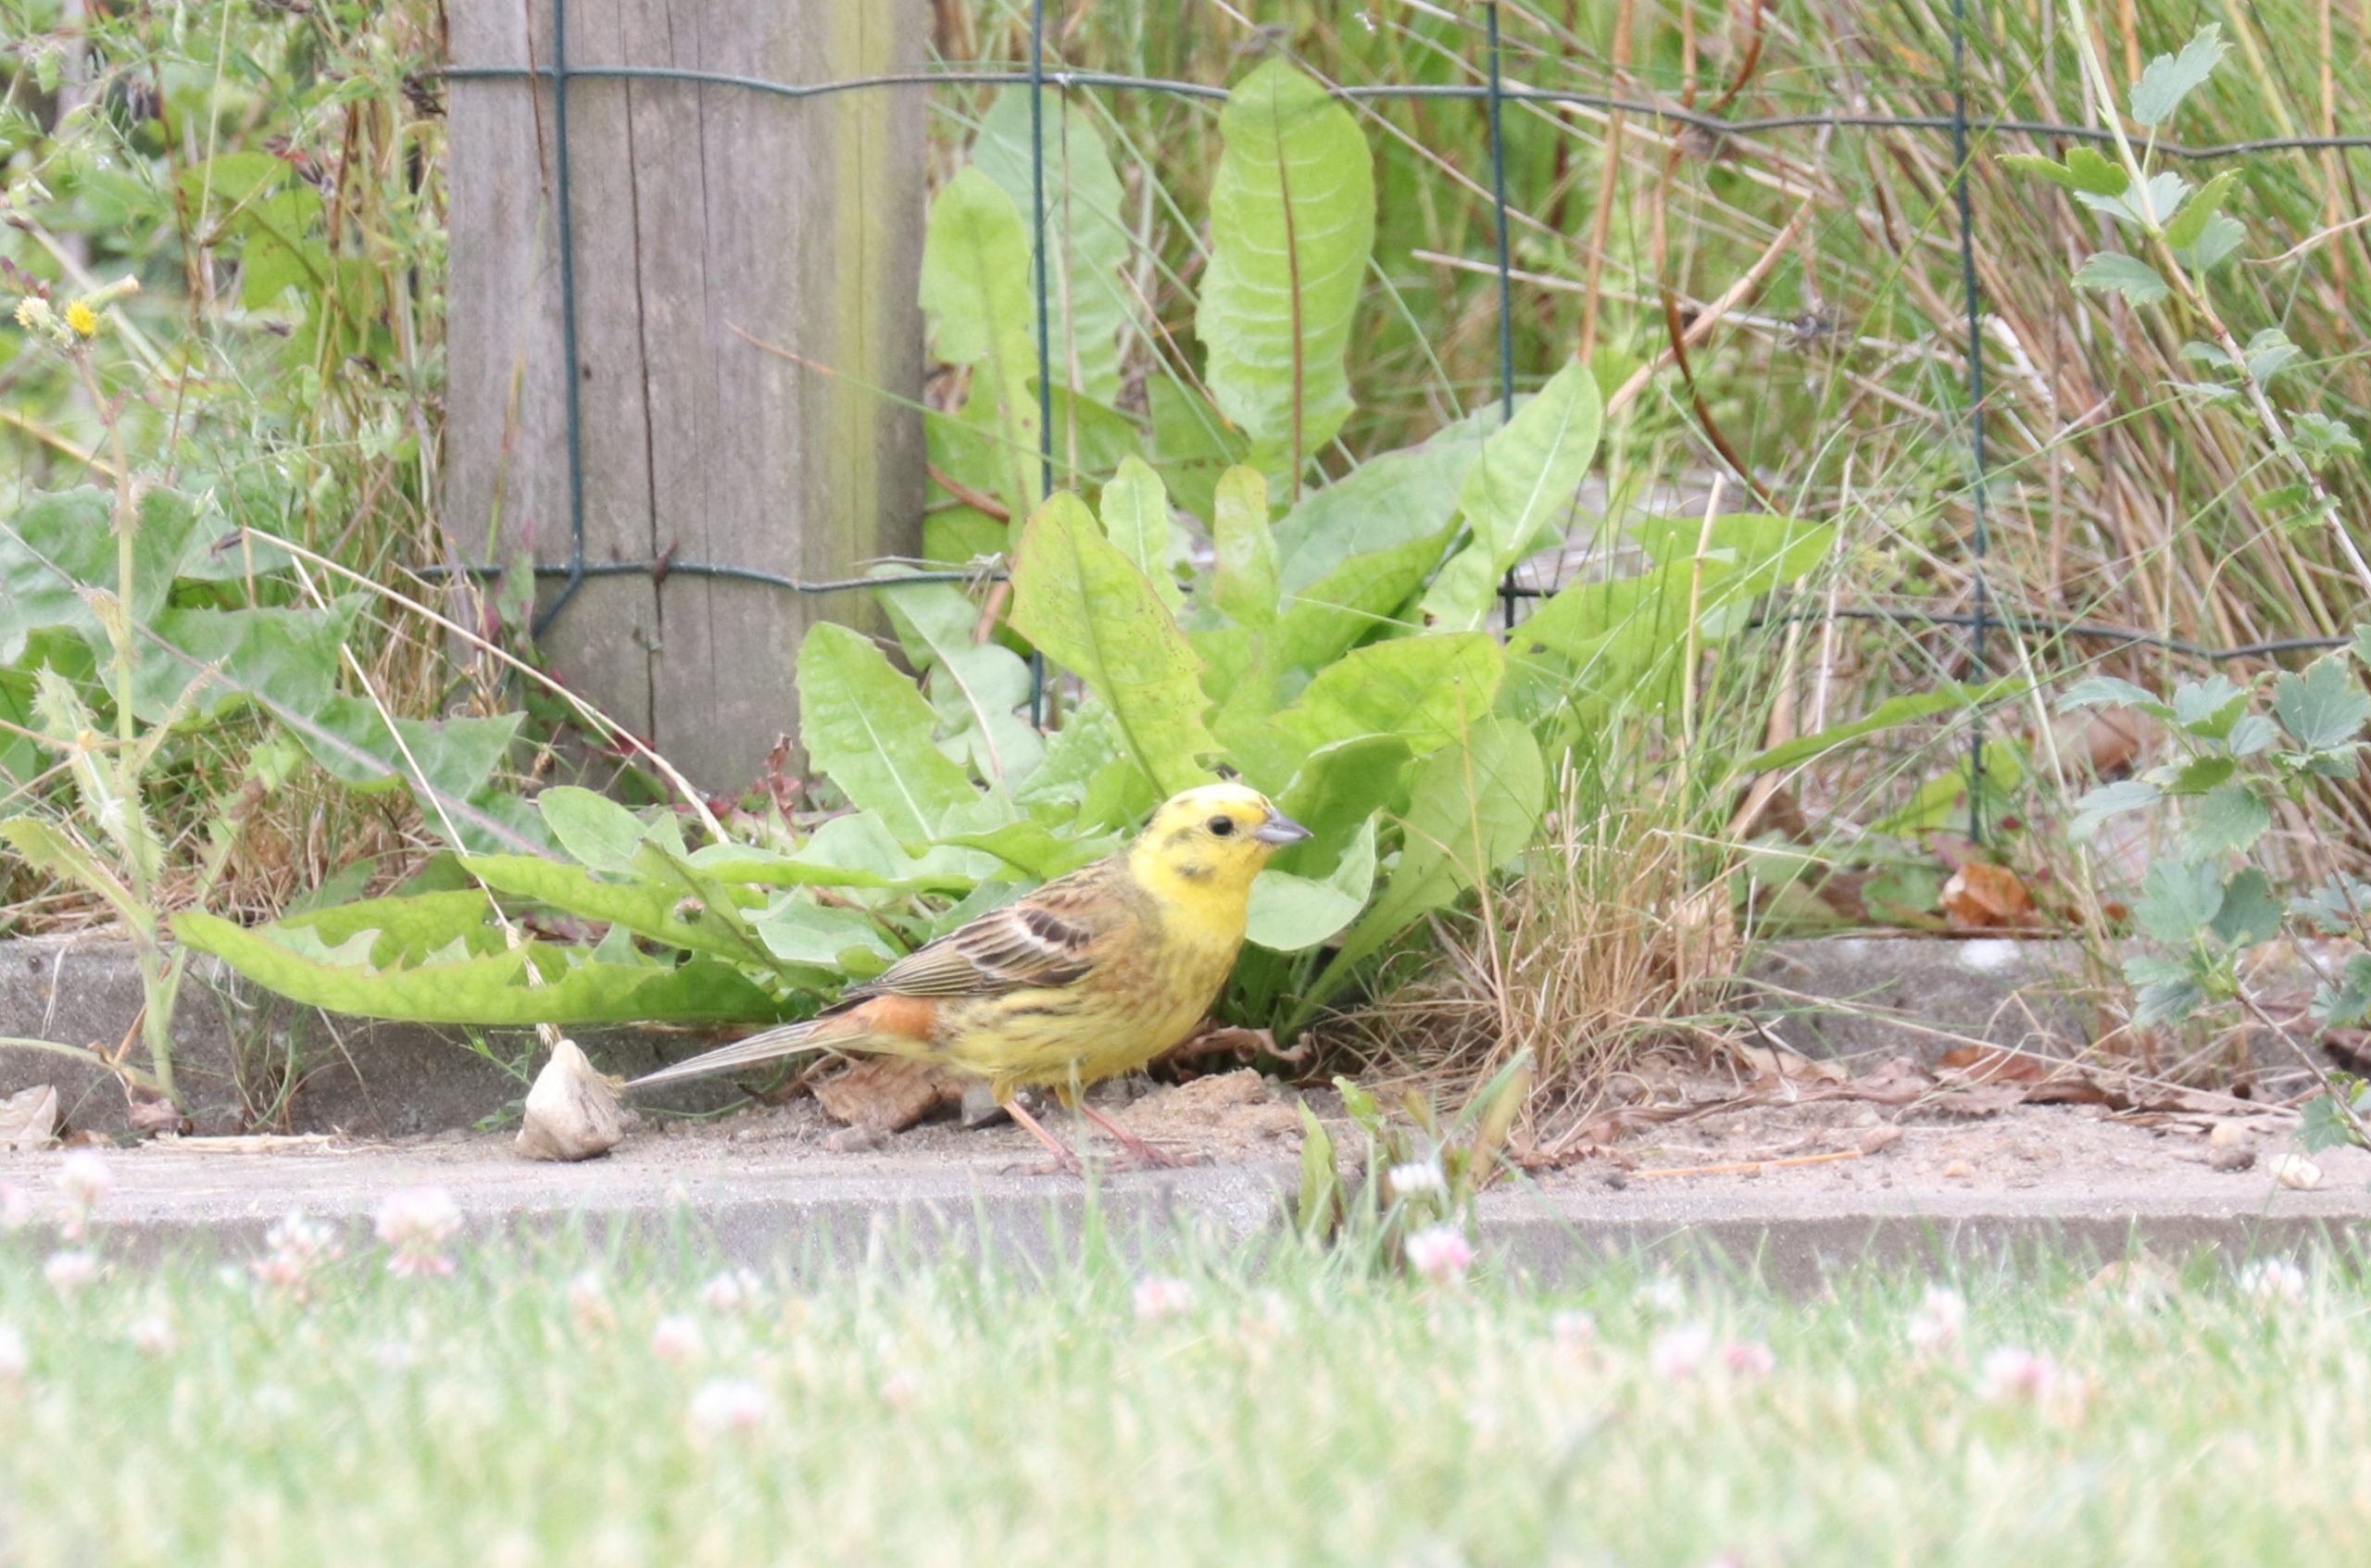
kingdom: Animalia
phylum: Chordata
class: Aves
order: Passeriformes
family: Emberizidae
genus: Emberiza
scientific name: Emberiza citrinella
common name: Gulspurv
